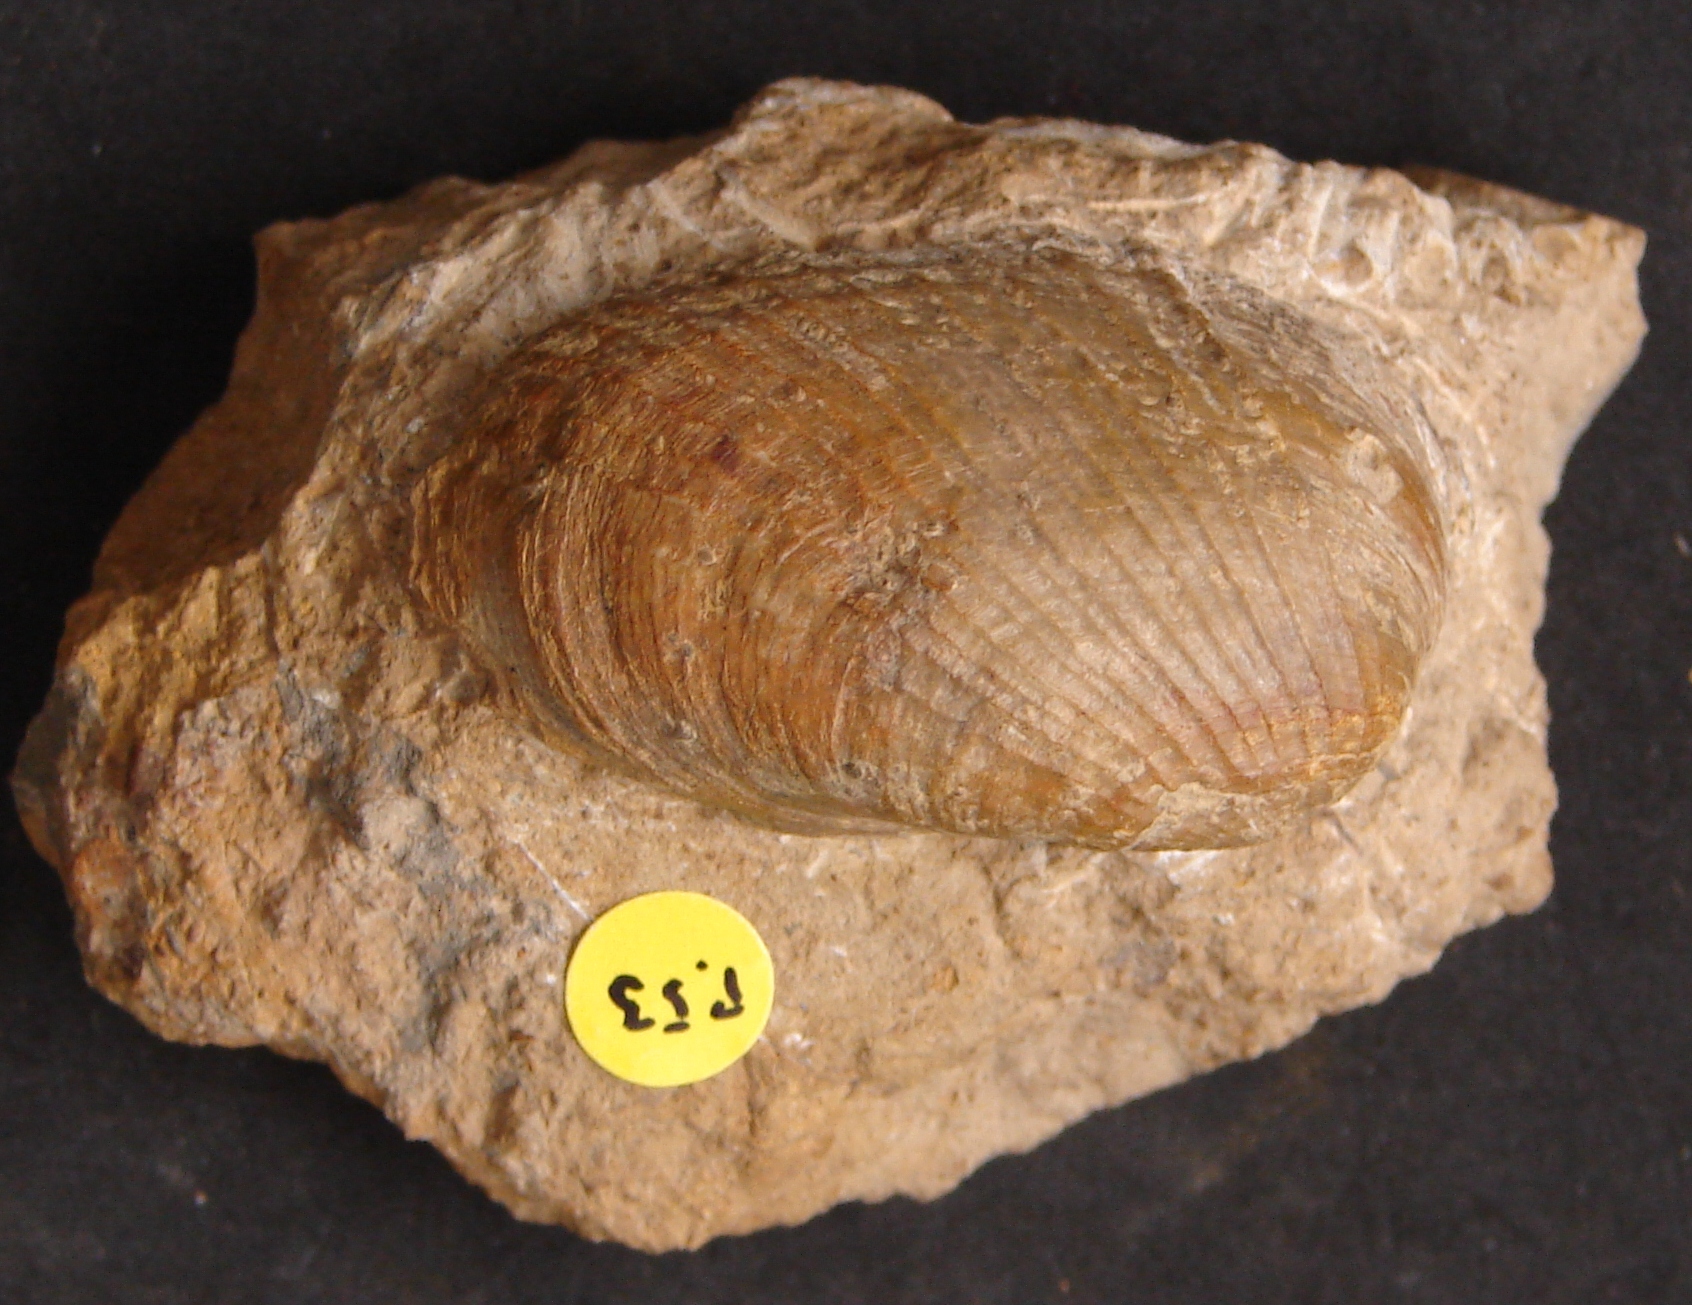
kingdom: Animalia
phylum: Mollusca
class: Bivalvia
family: Pholadomyidae
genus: Pholadomya
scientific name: Pholadomya lirata
